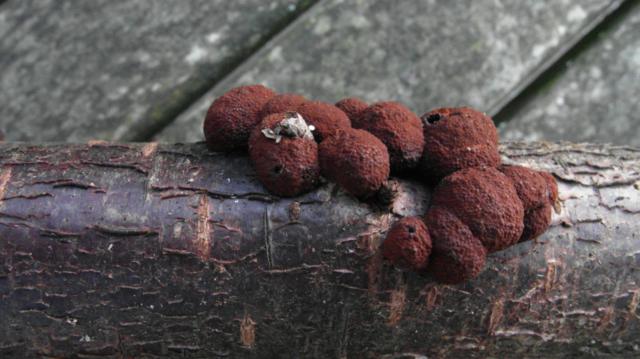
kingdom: Fungi
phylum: Ascomycota
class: Sordariomycetes
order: Xylariales
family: Hypoxylaceae
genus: Hypoxylon
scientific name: Hypoxylon fuscum
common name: kegleformet kulbær
